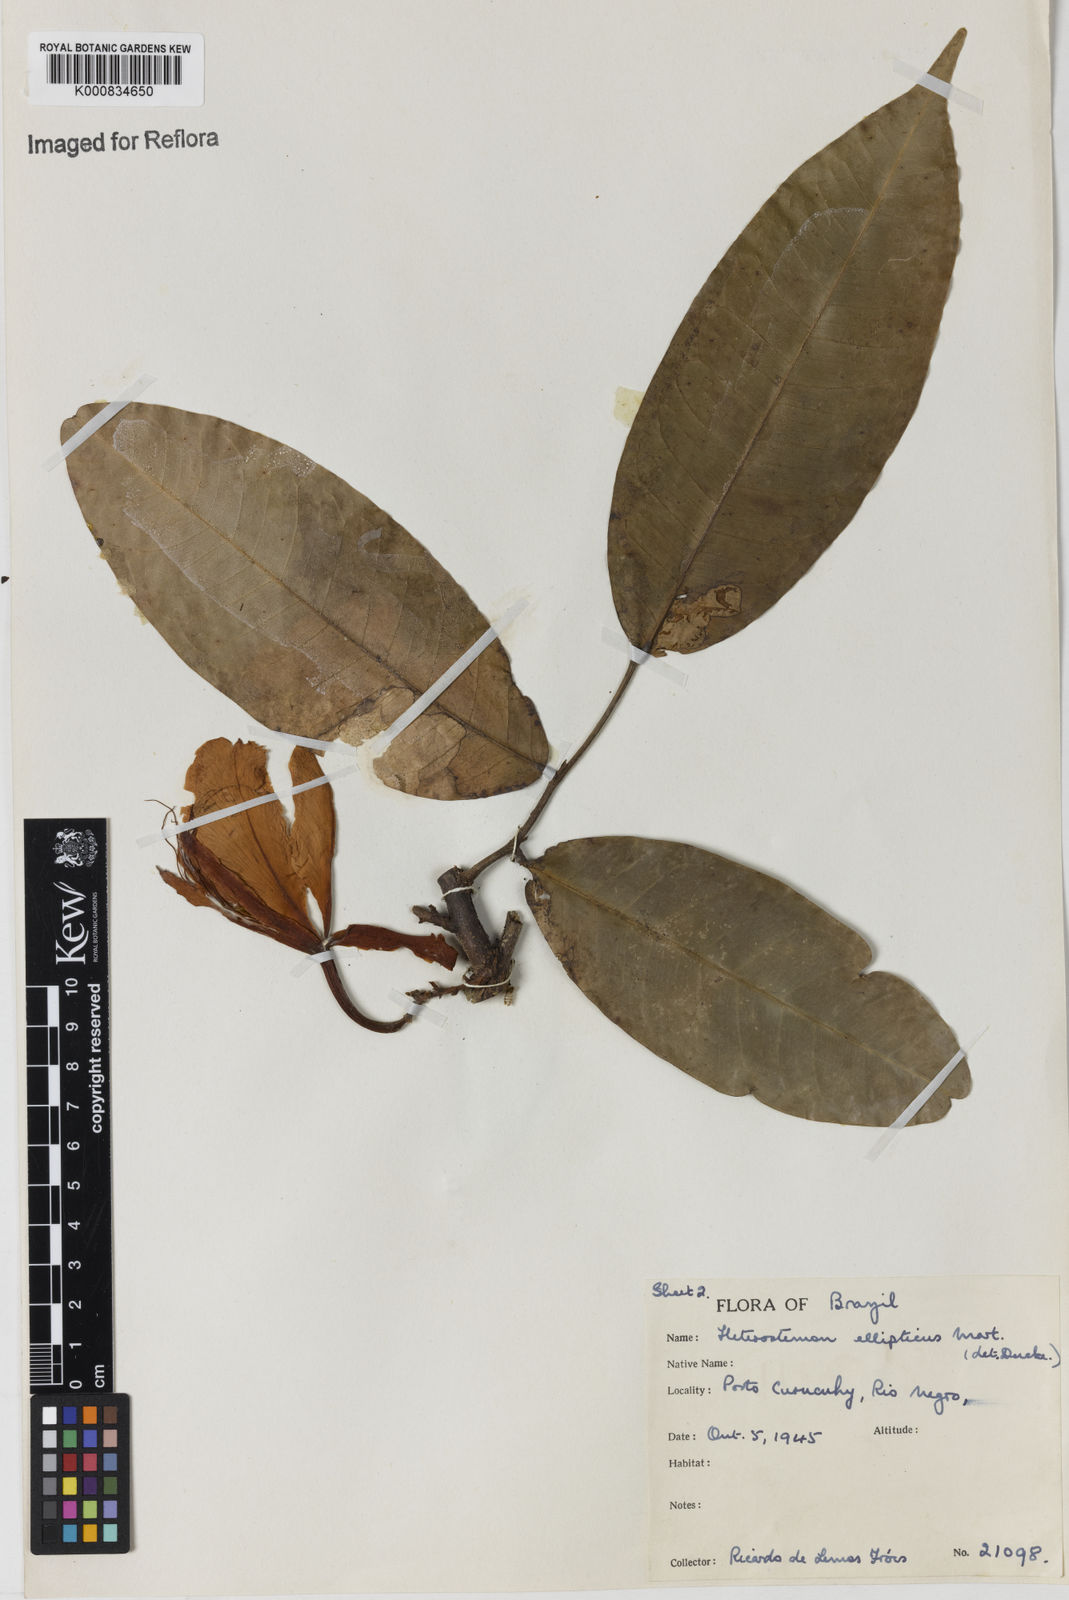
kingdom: Plantae
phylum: Tracheophyta
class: Magnoliopsida
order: Fabales
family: Fabaceae
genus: Heterostemon
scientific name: Heterostemon ellipticus
